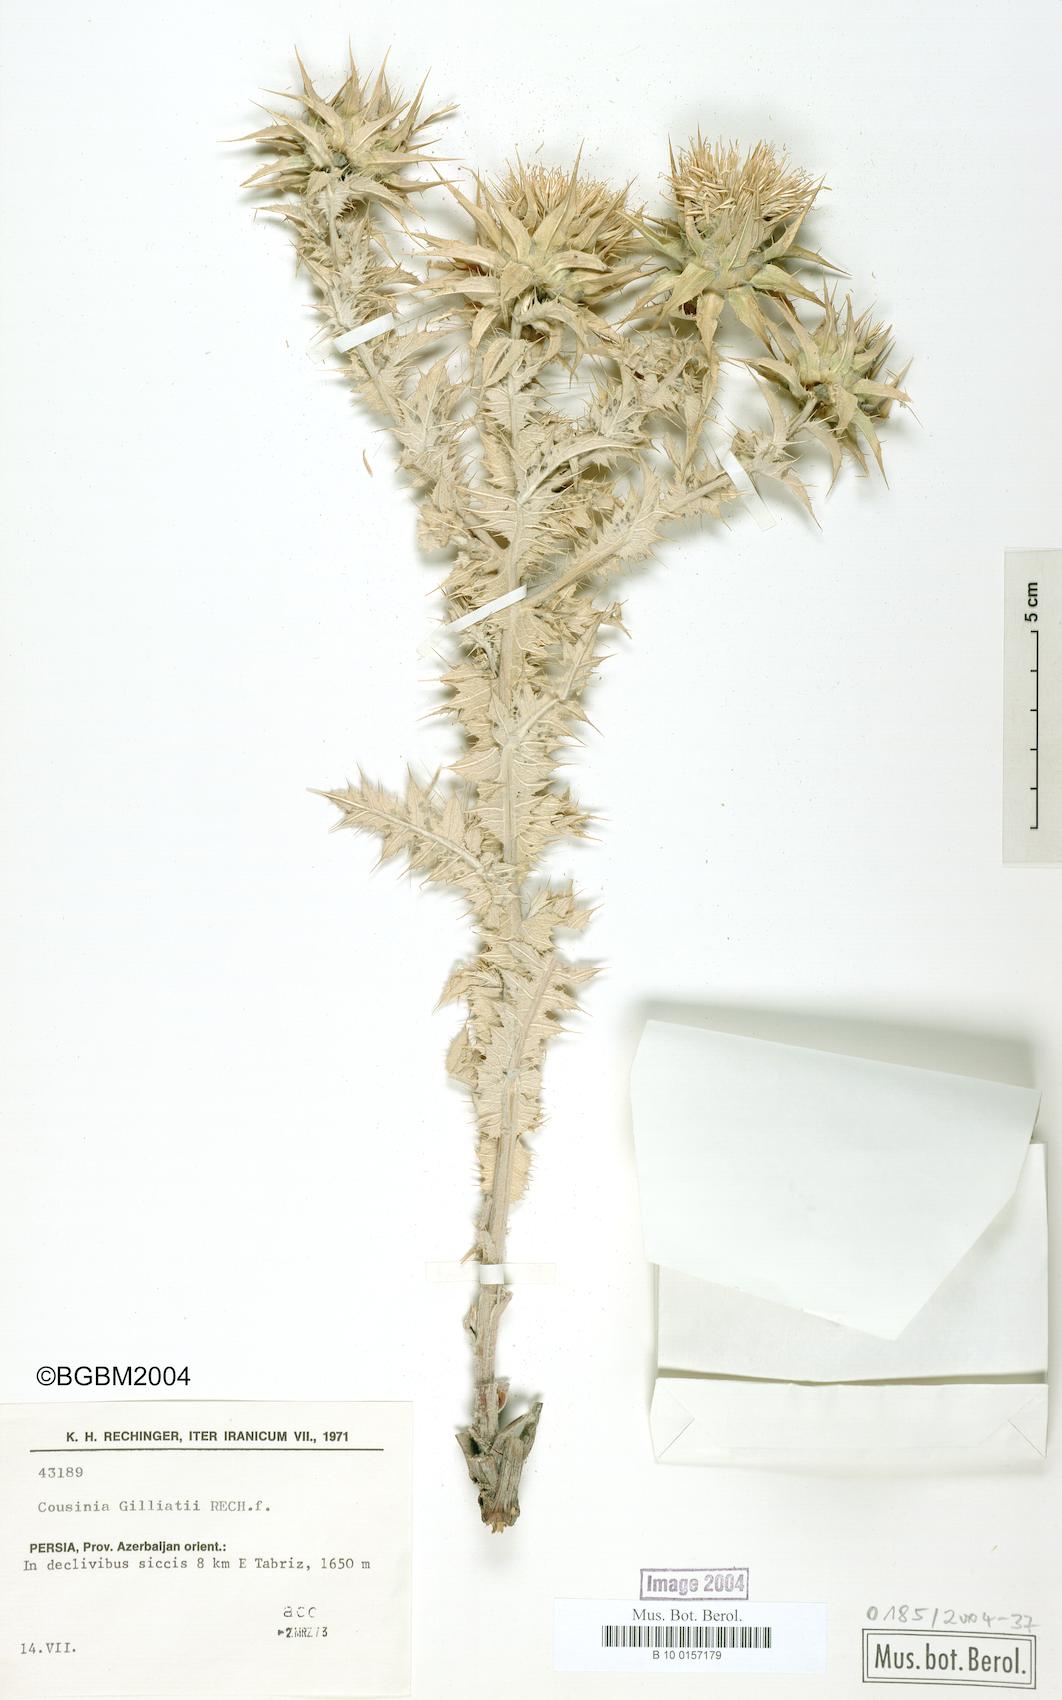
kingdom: Plantae
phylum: Tracheophyta
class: Magnoliopsida
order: Asterales
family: Asteraceae
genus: Cousinia
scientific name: Cousinia gilliatii
